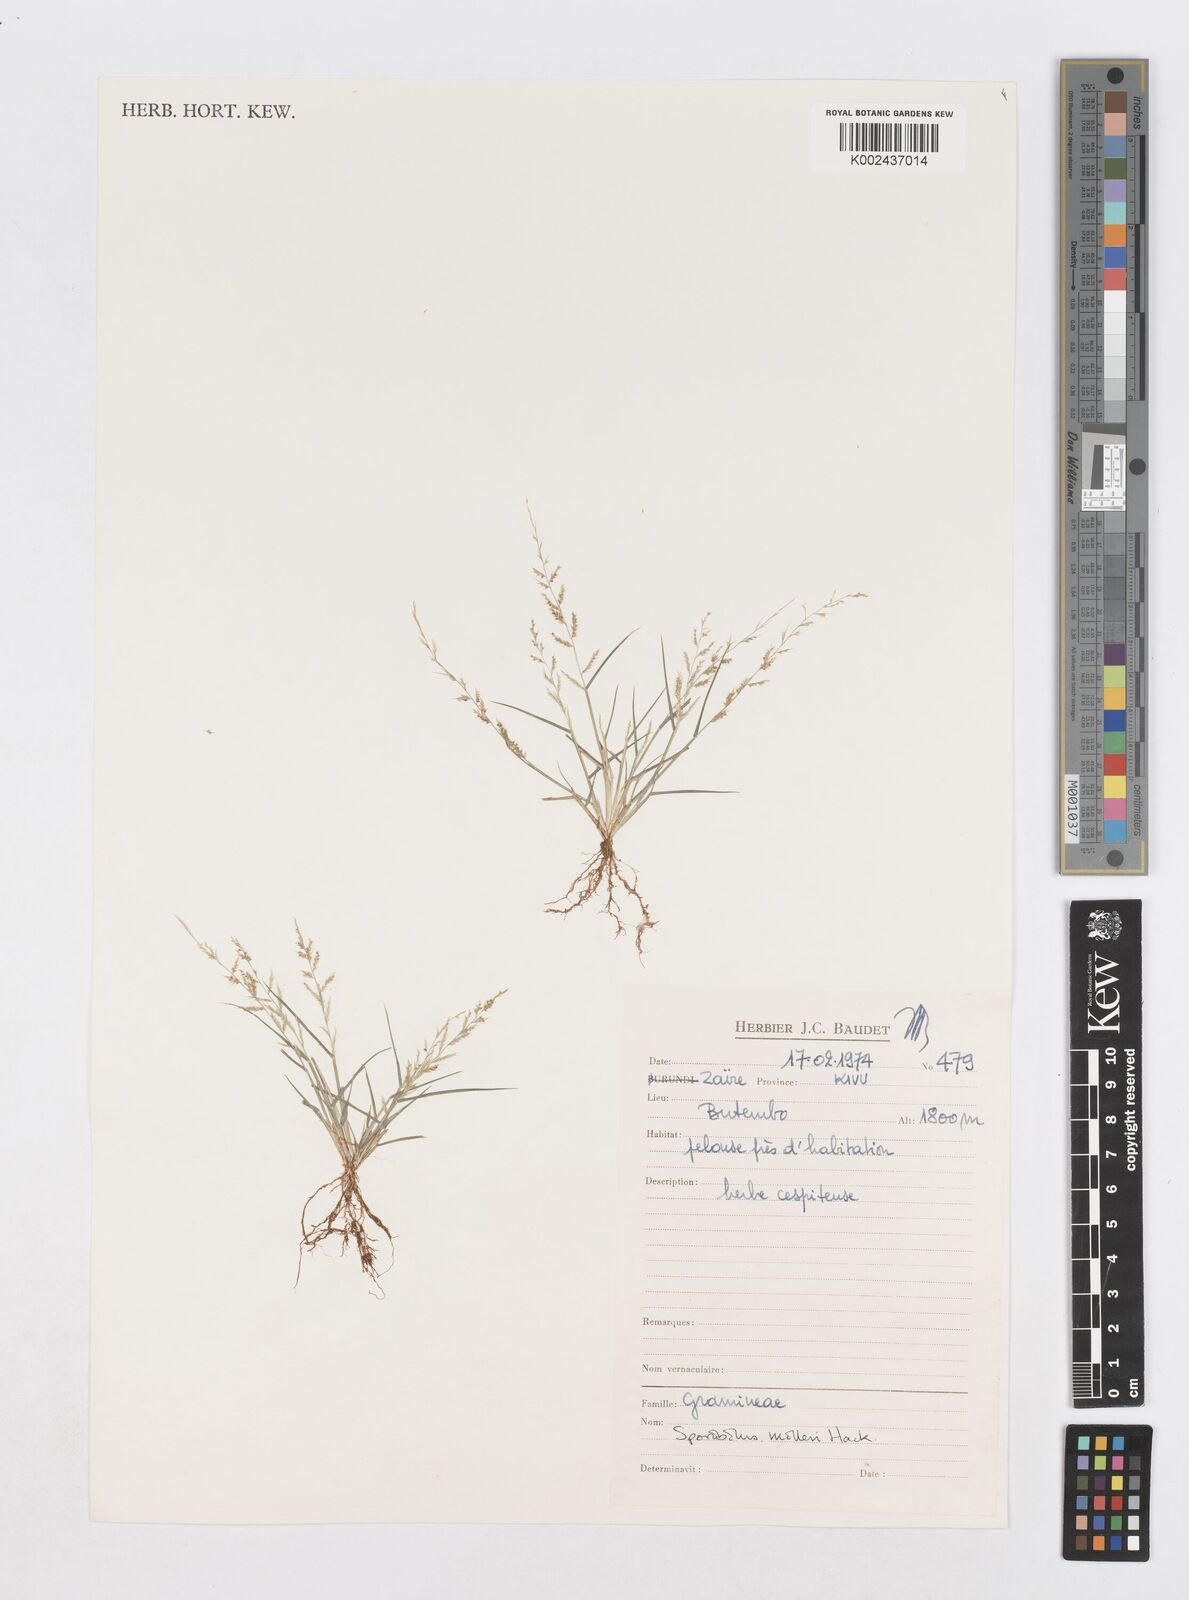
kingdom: Plantae
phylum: Tracheophyta
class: Liliopsida
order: Poales
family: Poaceae
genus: Sporobolus
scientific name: Sporobolus molleri
